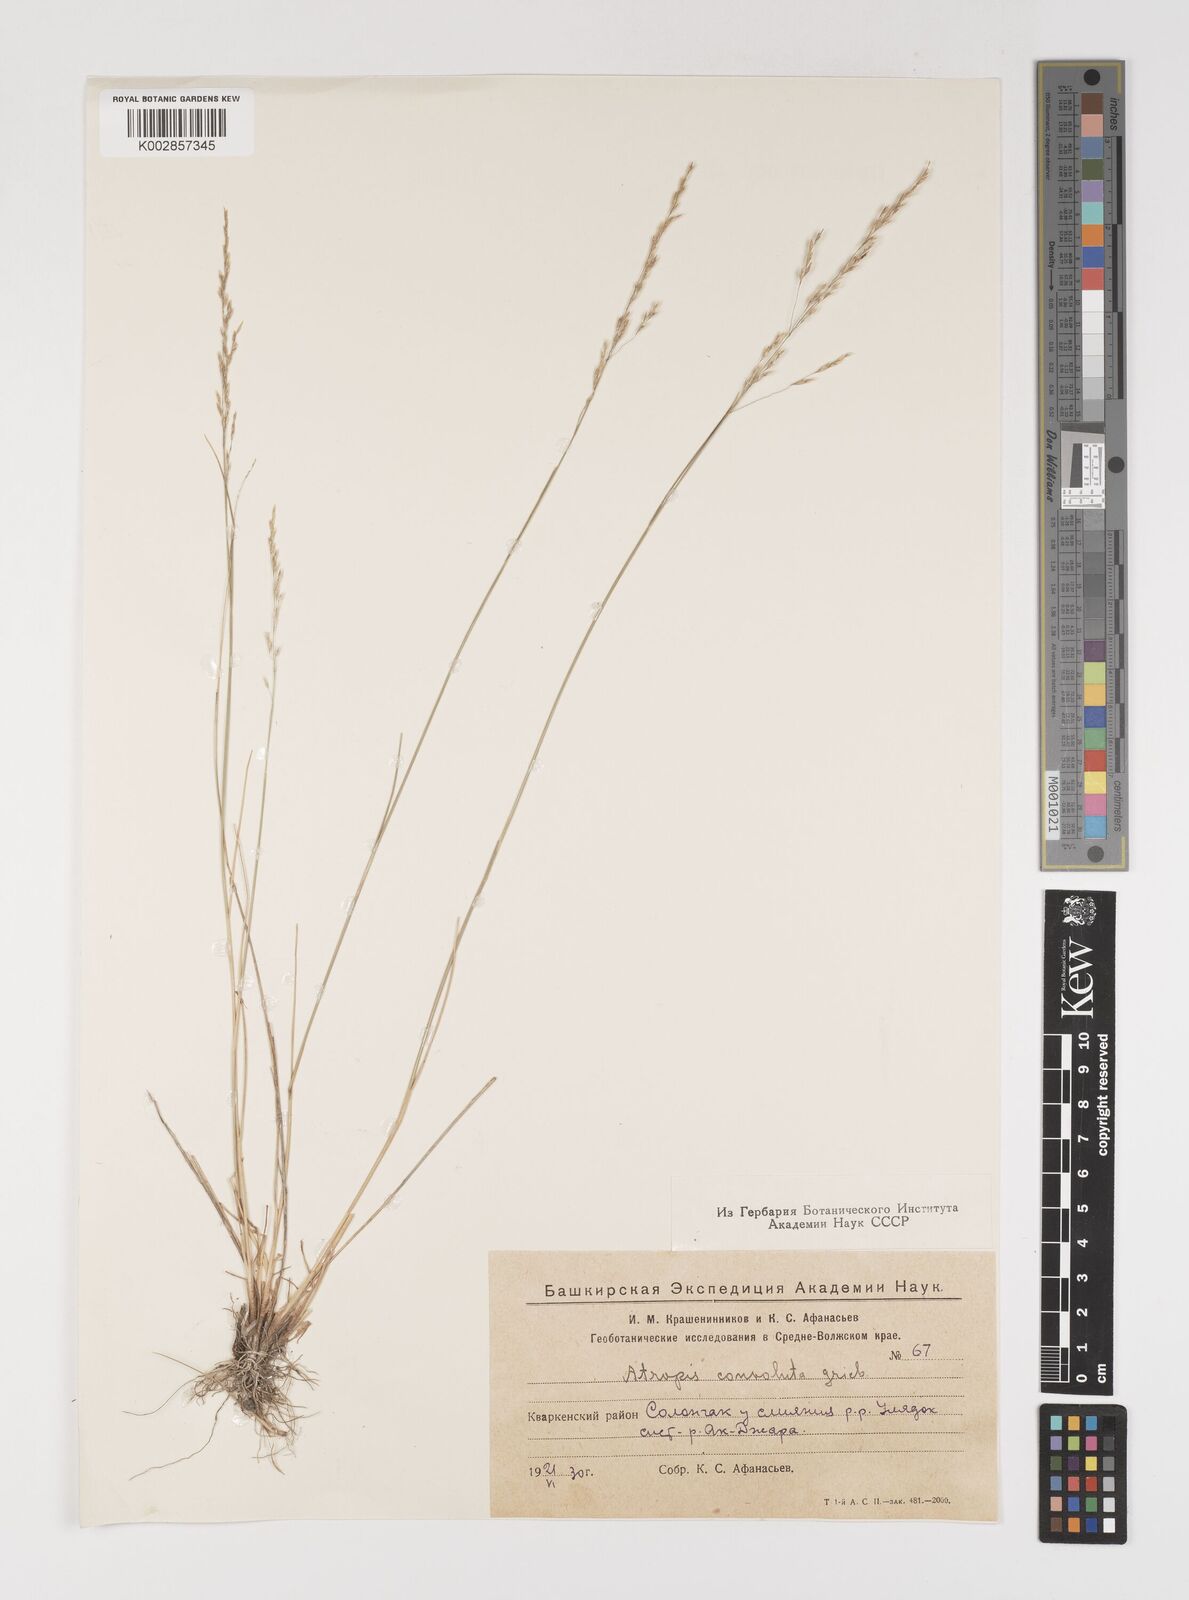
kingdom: Plantae
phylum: Tracheophyta
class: Liliopsida
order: Poales
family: Poaceae
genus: Puccinellia
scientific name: Puccinellia gigantea
